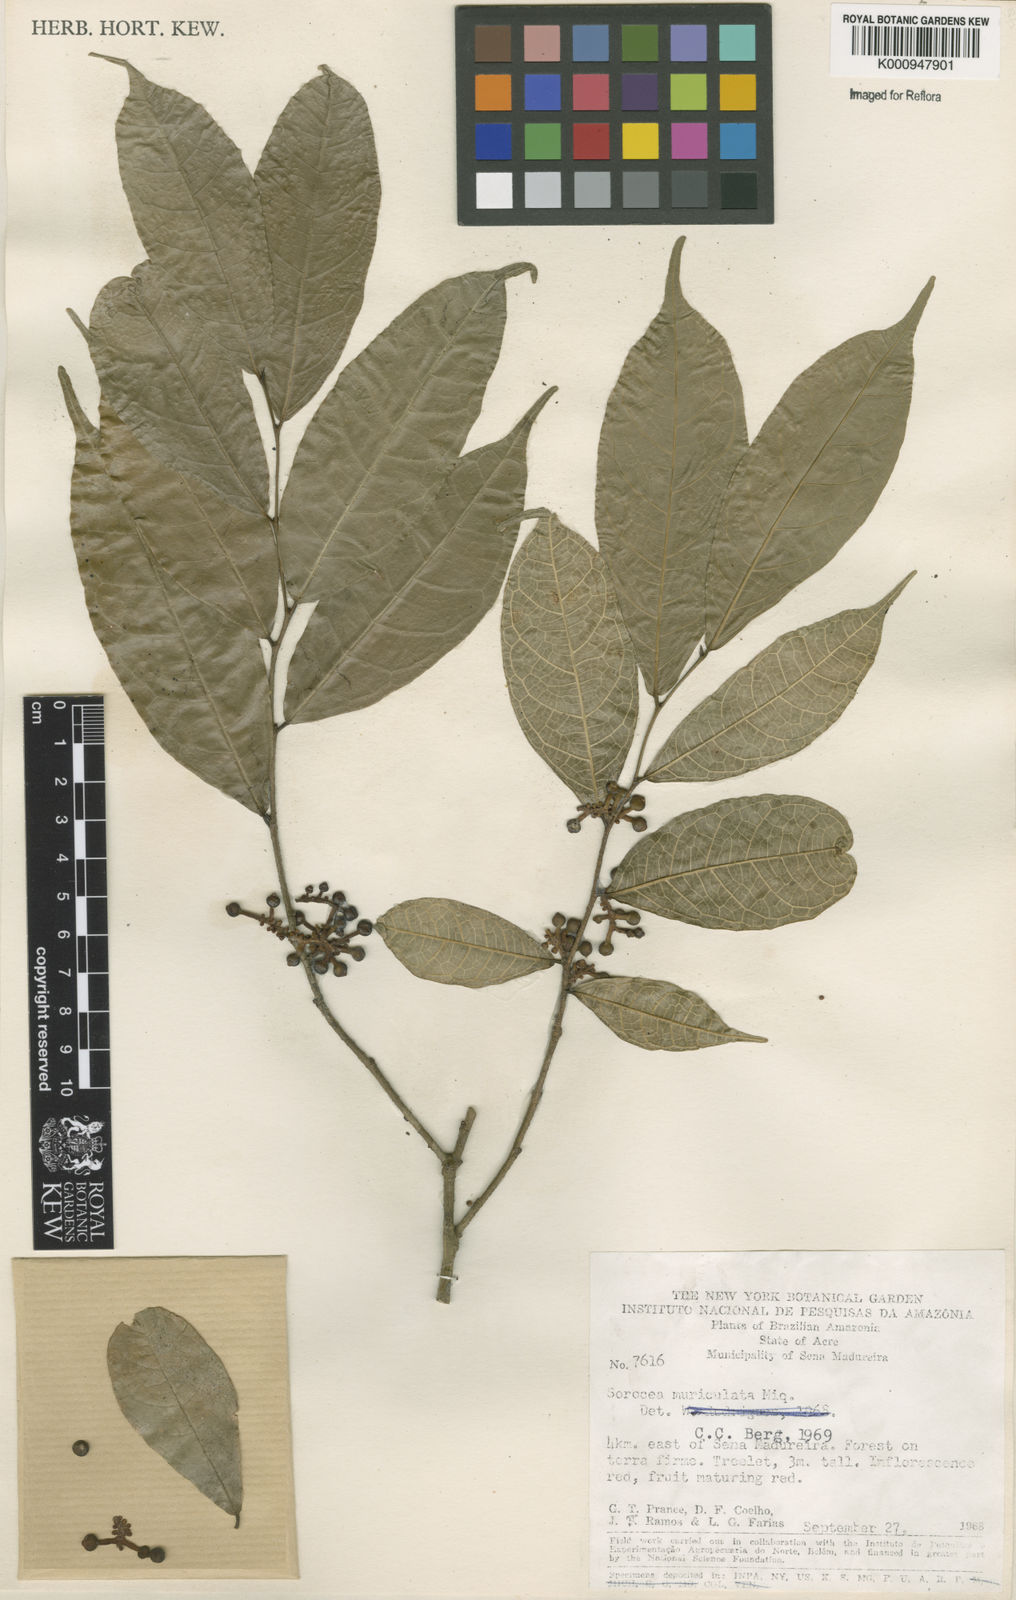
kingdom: Plantae
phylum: Tracheophyta
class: Magnoliopsida
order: Rosales
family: Moraceae
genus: Sorocea
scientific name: Sorocea muriculata
